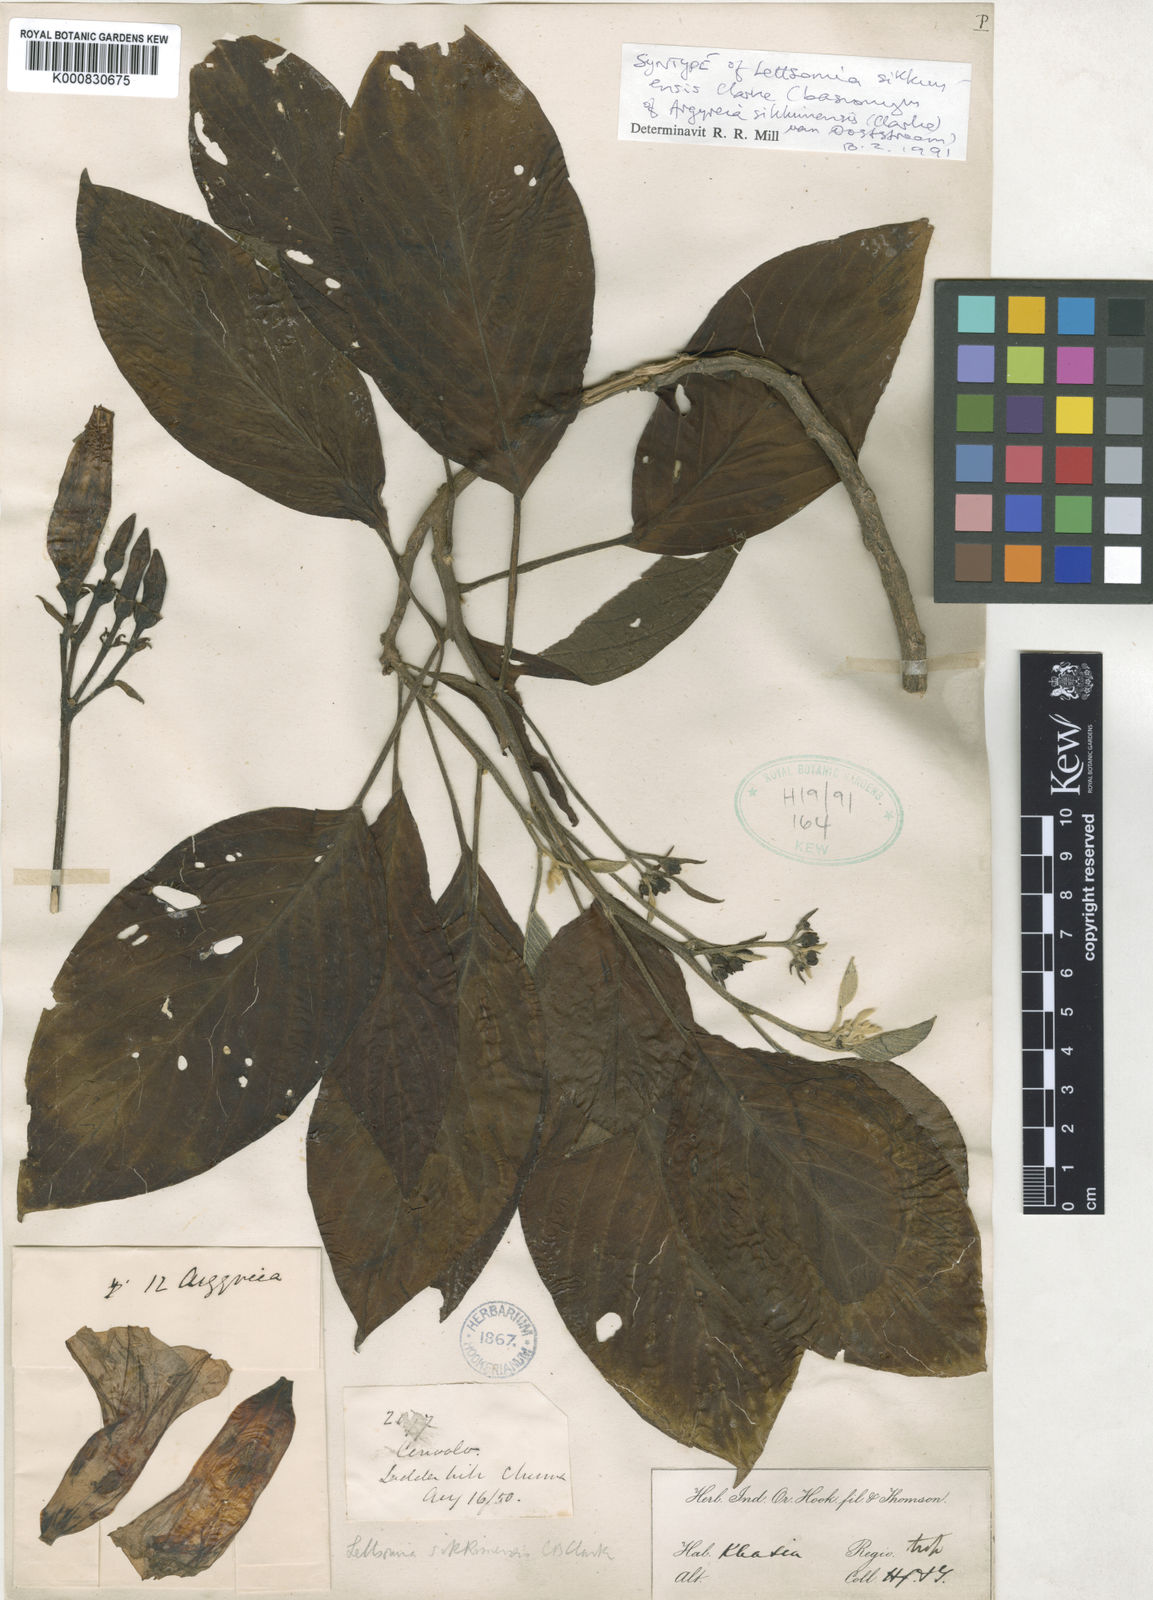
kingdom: Plantae
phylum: Tracheophyta
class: Magnoliopsida
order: Solanales
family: Convolvulaceae
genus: Argyreia
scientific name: Argyreia sikkimensis
